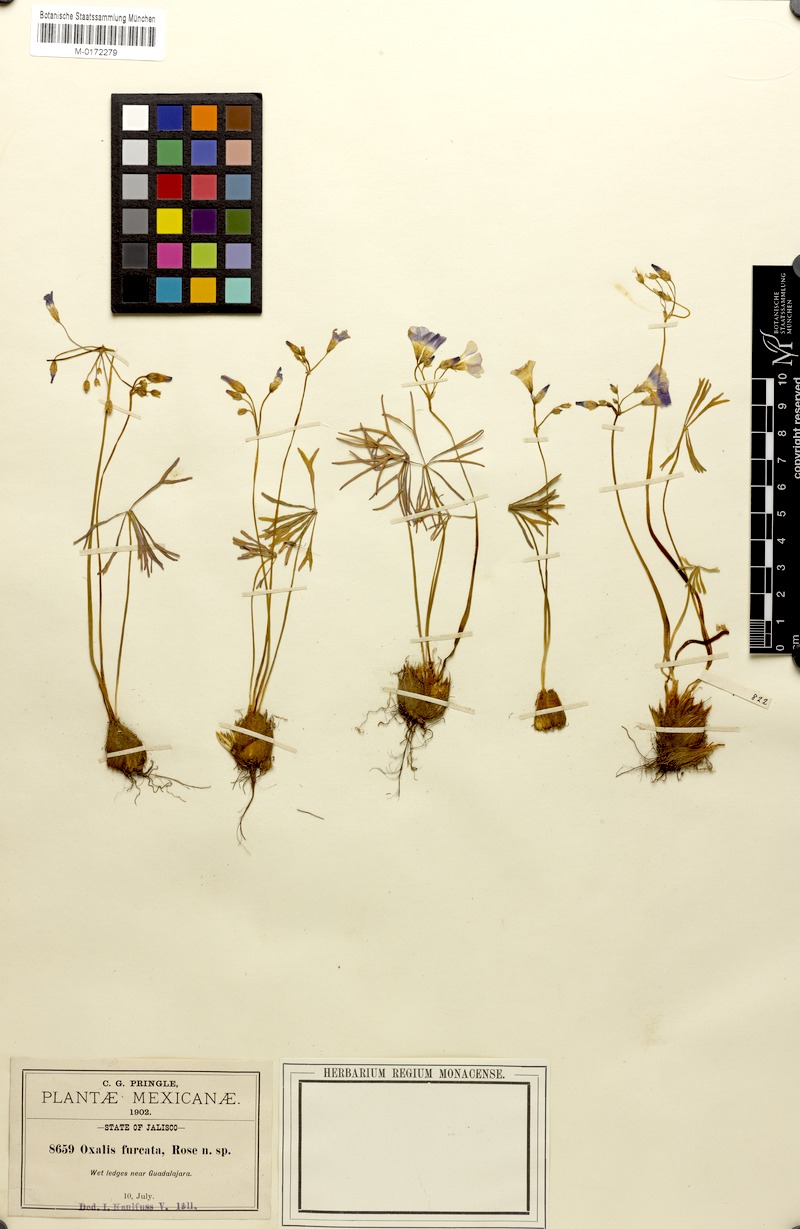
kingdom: Plantae
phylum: Tracheophyta
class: Magnoliopsida
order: Oxalidales
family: Oxalidaceae
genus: Oxalis
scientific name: Oxalis decaphylla
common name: Ten-leaved pink-sorrel
